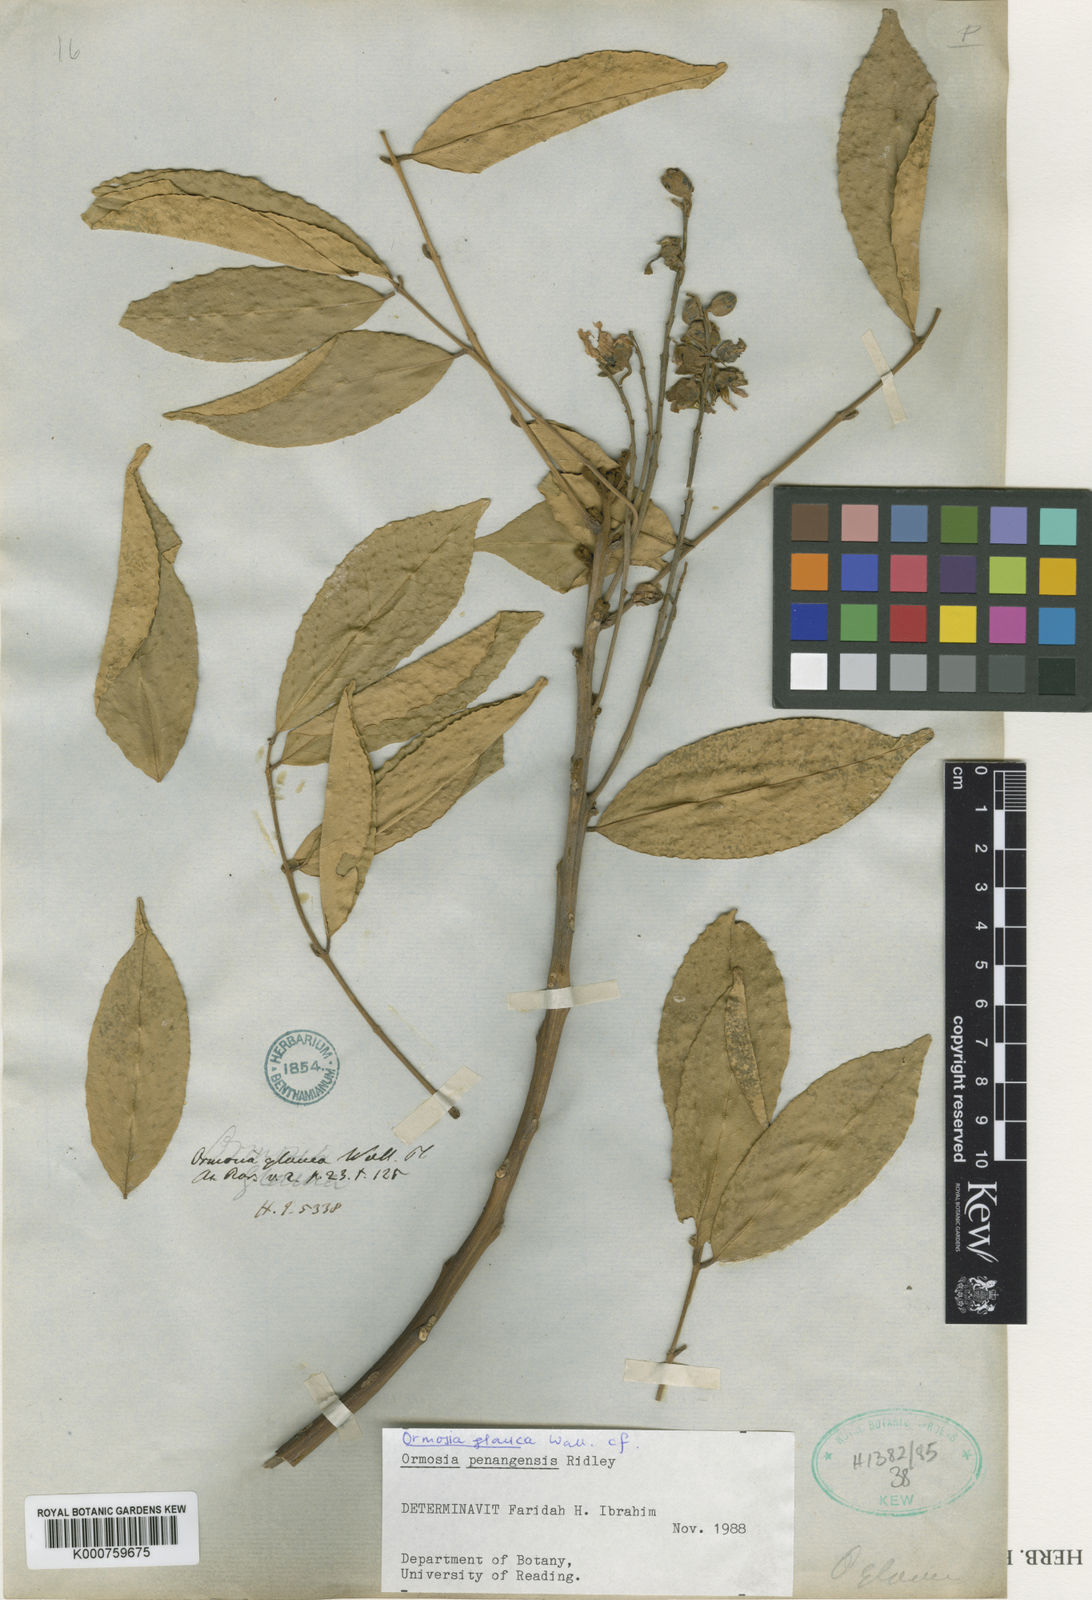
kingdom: Plantae
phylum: Tracheophyta
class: Magnoliopsida
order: Fabales
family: Fabaceae
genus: Ormosia
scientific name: Ormosia glauca
